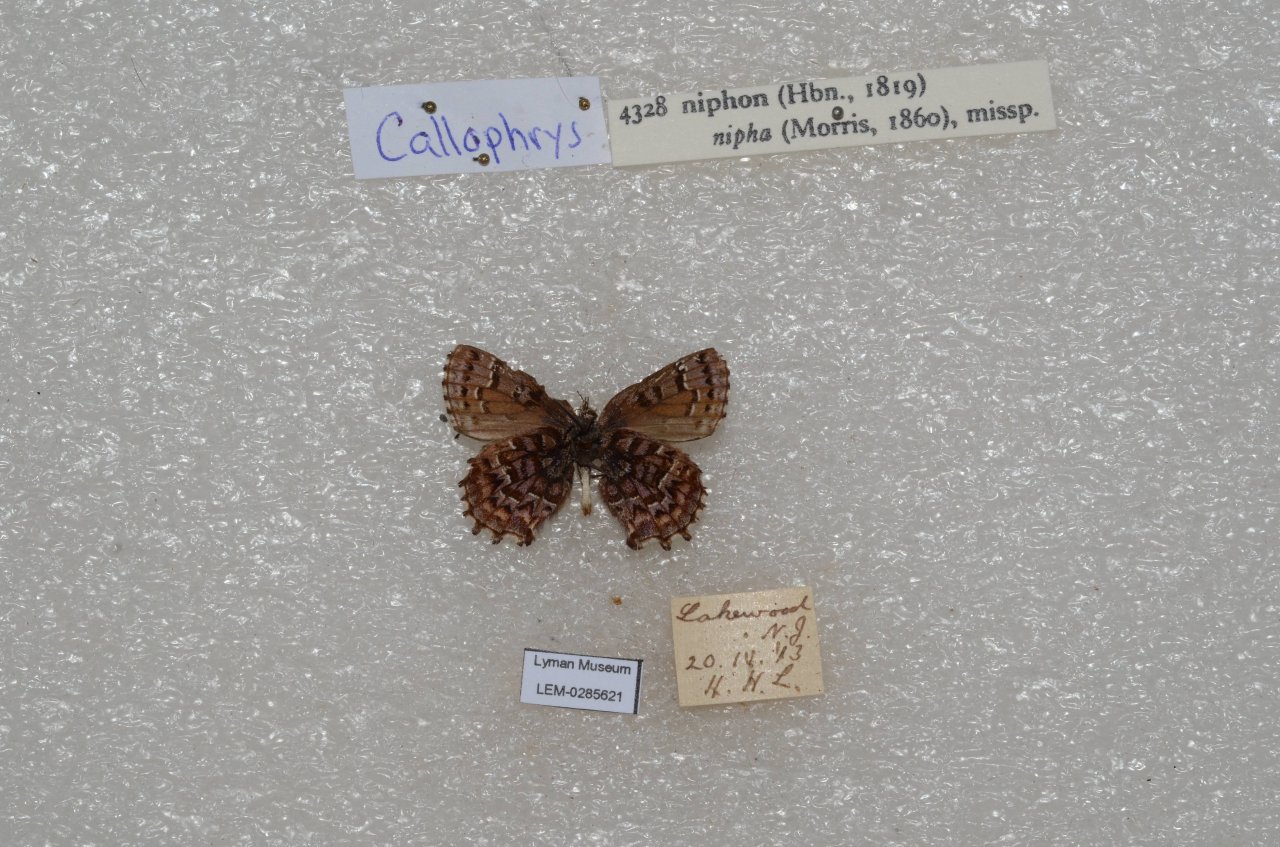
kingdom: Animalia
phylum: Arthropoda
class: Insecta
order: Lepidoptera
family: Lycaenidae
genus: Incisalia
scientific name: Incisalia niphon
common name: Eastern Pine Elfin
